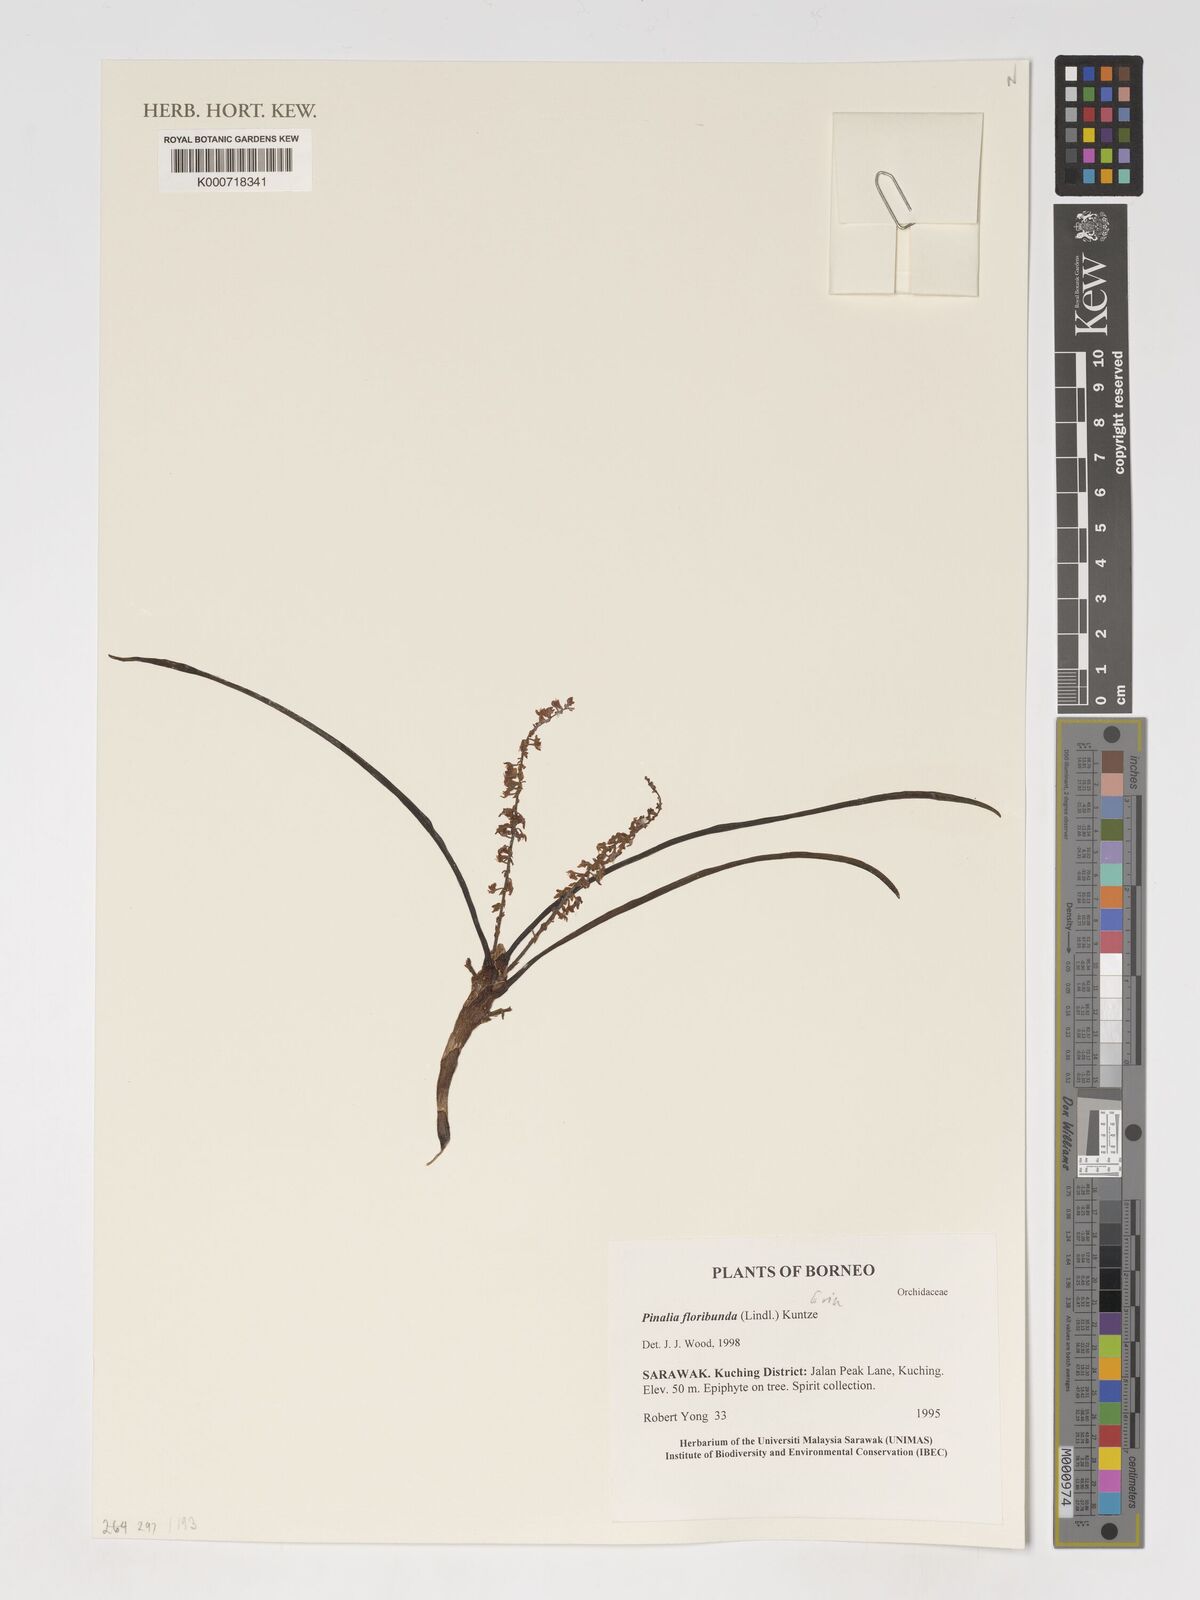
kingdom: Plantae
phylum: Tracheophyta
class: Liliopsida
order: Asparagales
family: Orchidaceae
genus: Pinalia
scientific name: Pinalia floribunda
